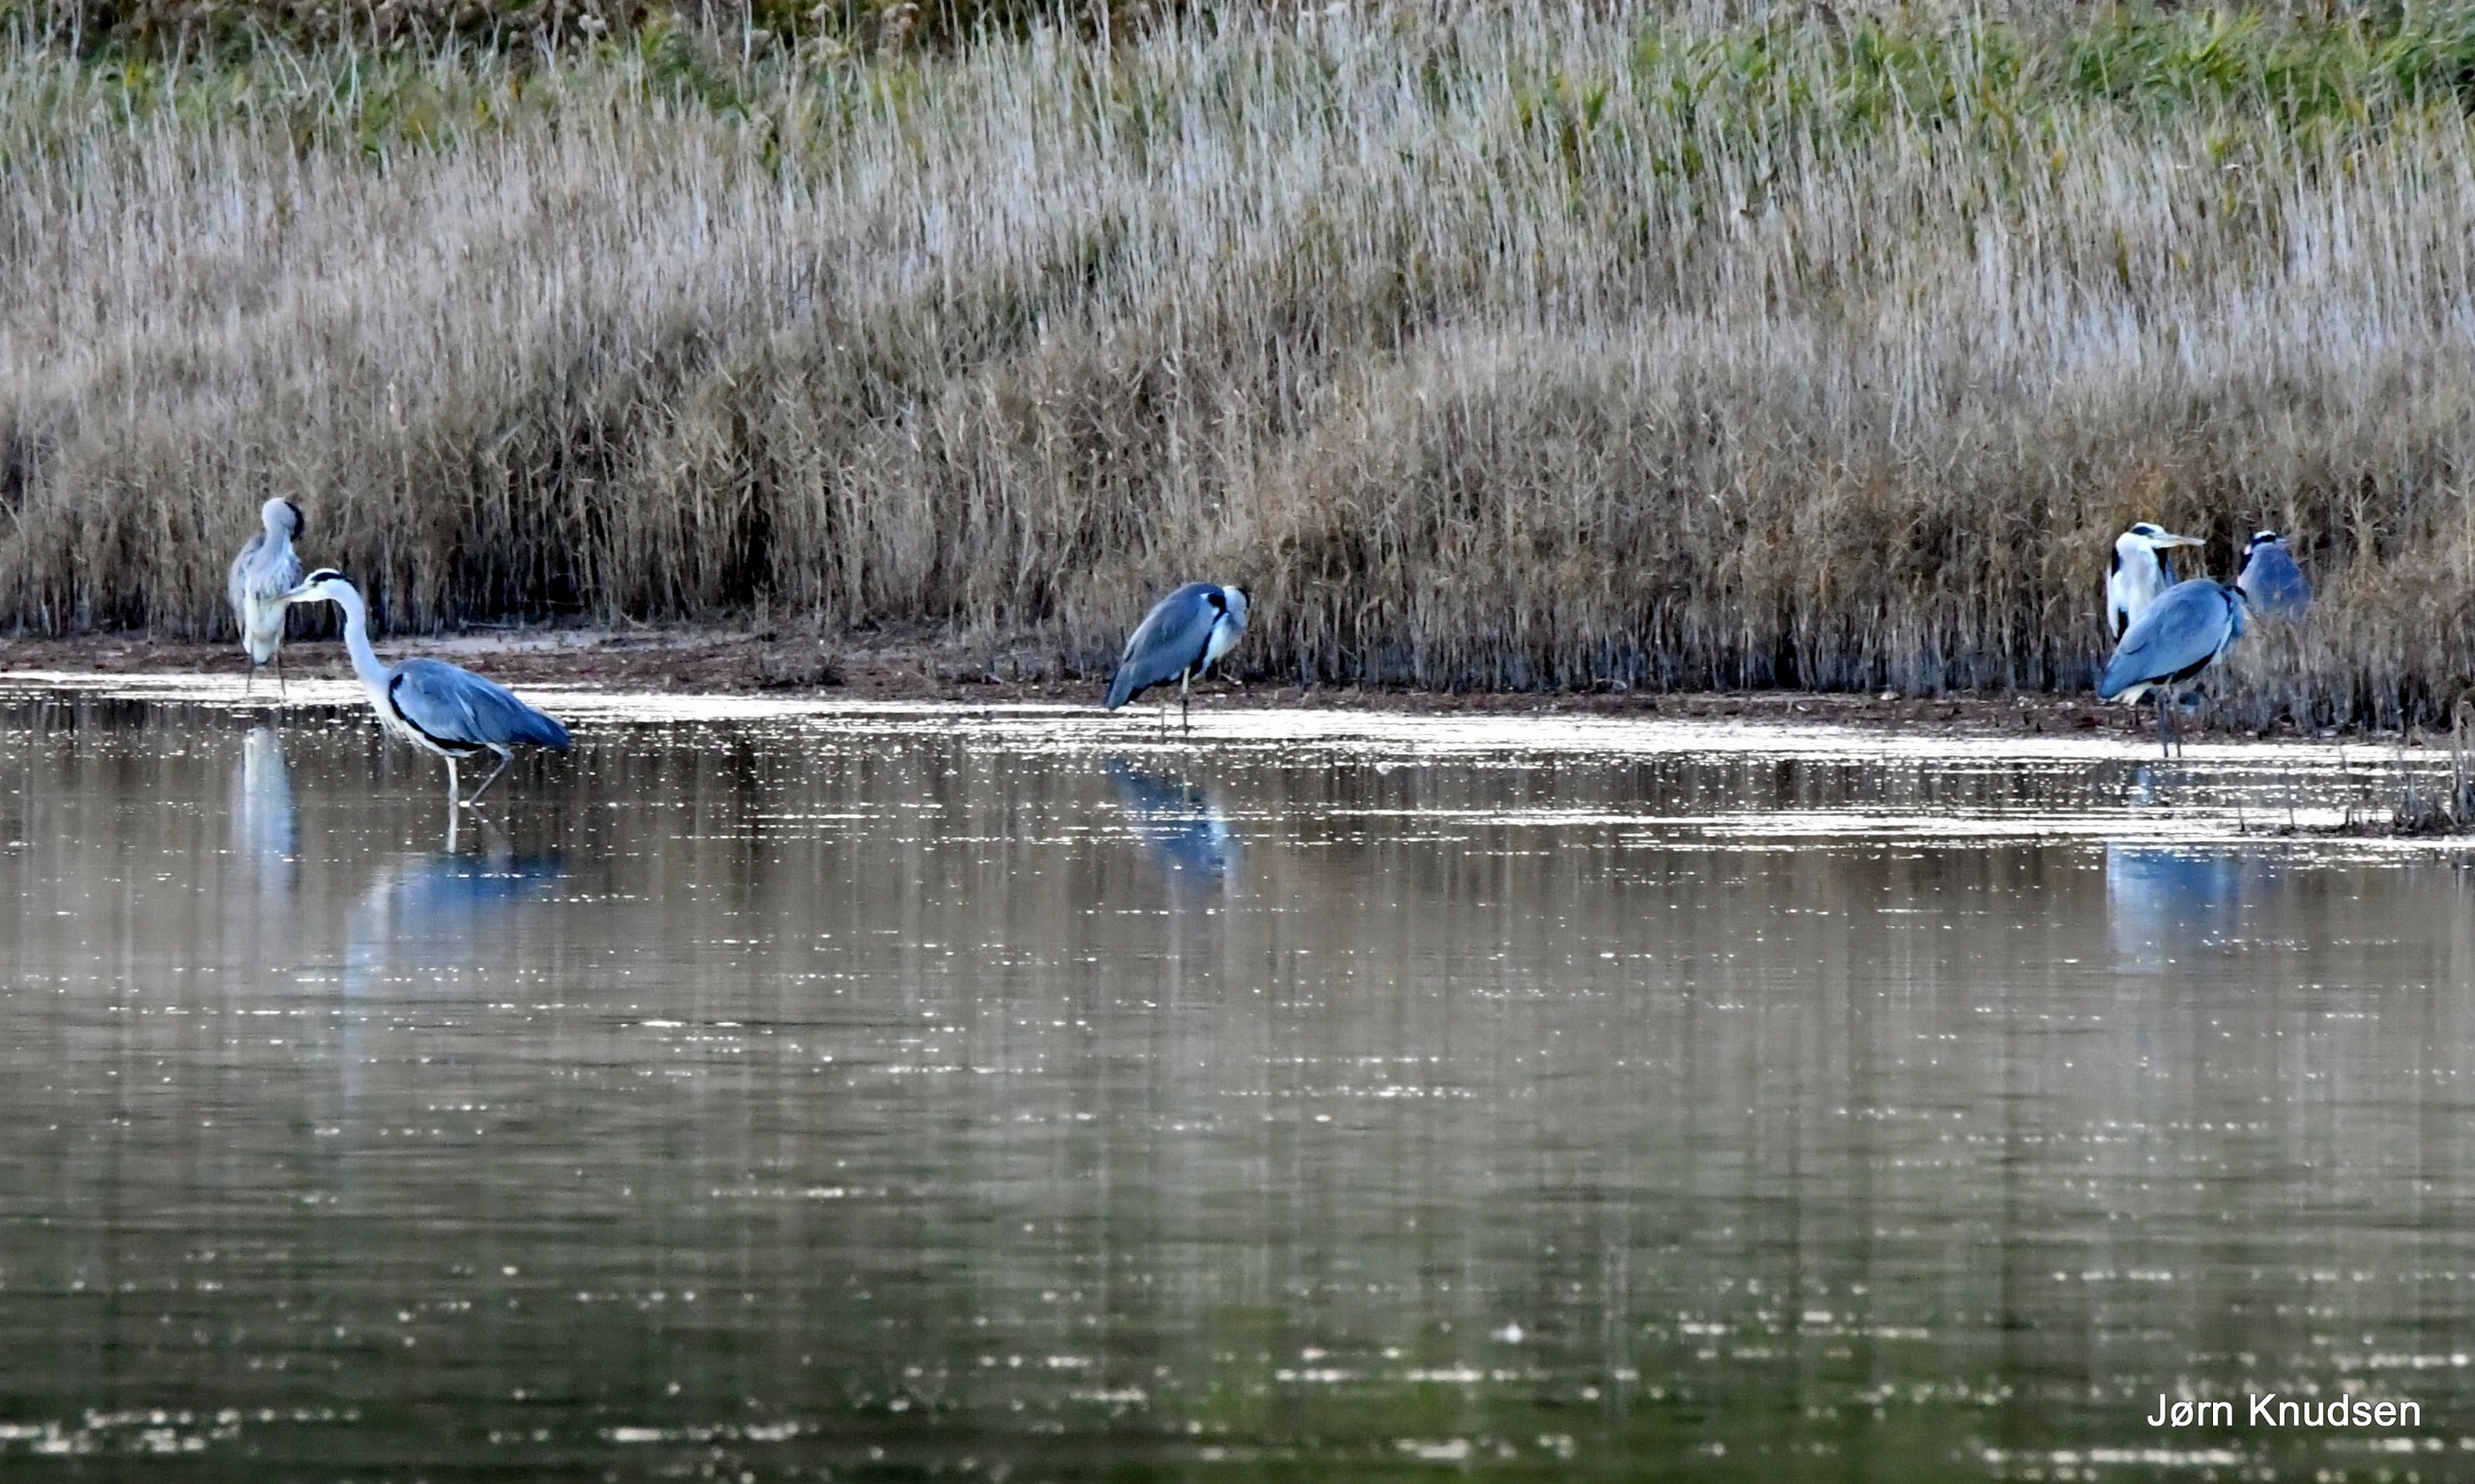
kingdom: Animalia
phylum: Chordata
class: Aves
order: Pelecaniformes
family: Ardeidae
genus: Ardea
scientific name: Ardea cinerea
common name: Fiskehejre
